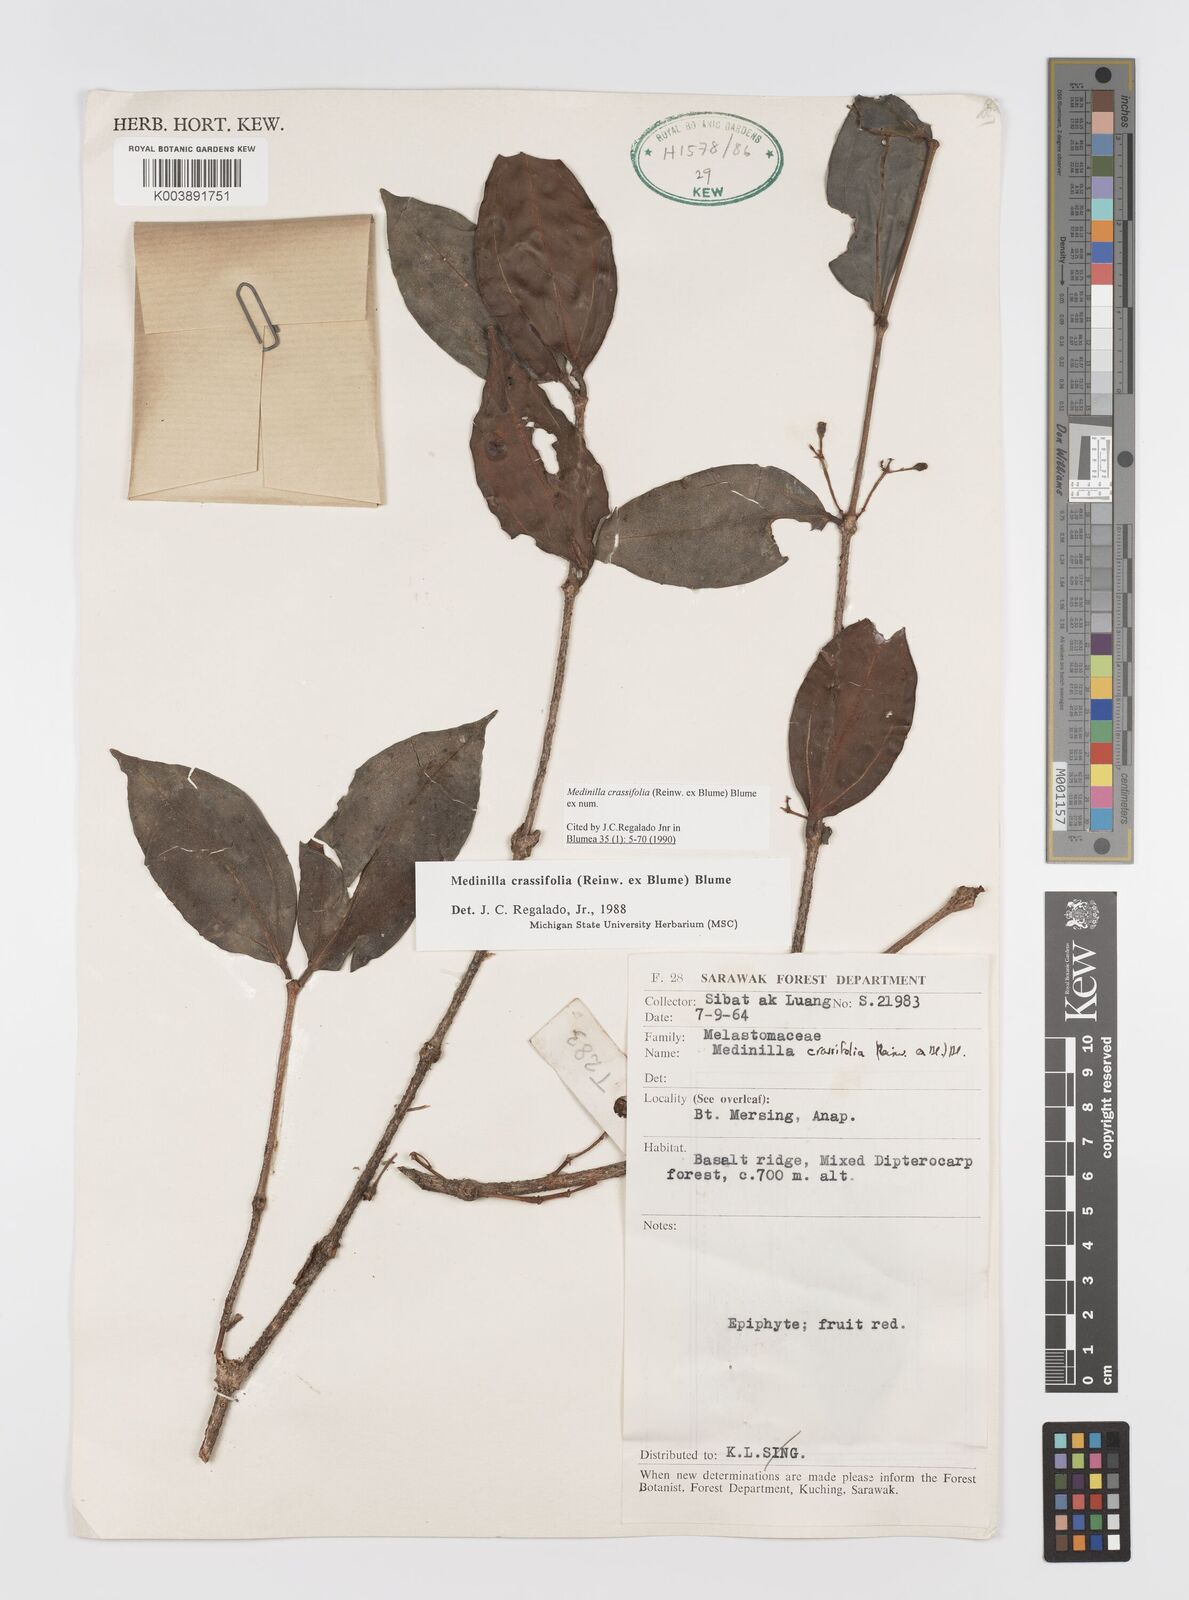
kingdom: Plantae
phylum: Tracheophyta
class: Magnoliopsida
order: Myrtales
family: Melastomataceae
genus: Medinilla
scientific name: Medinilla crassifolia
